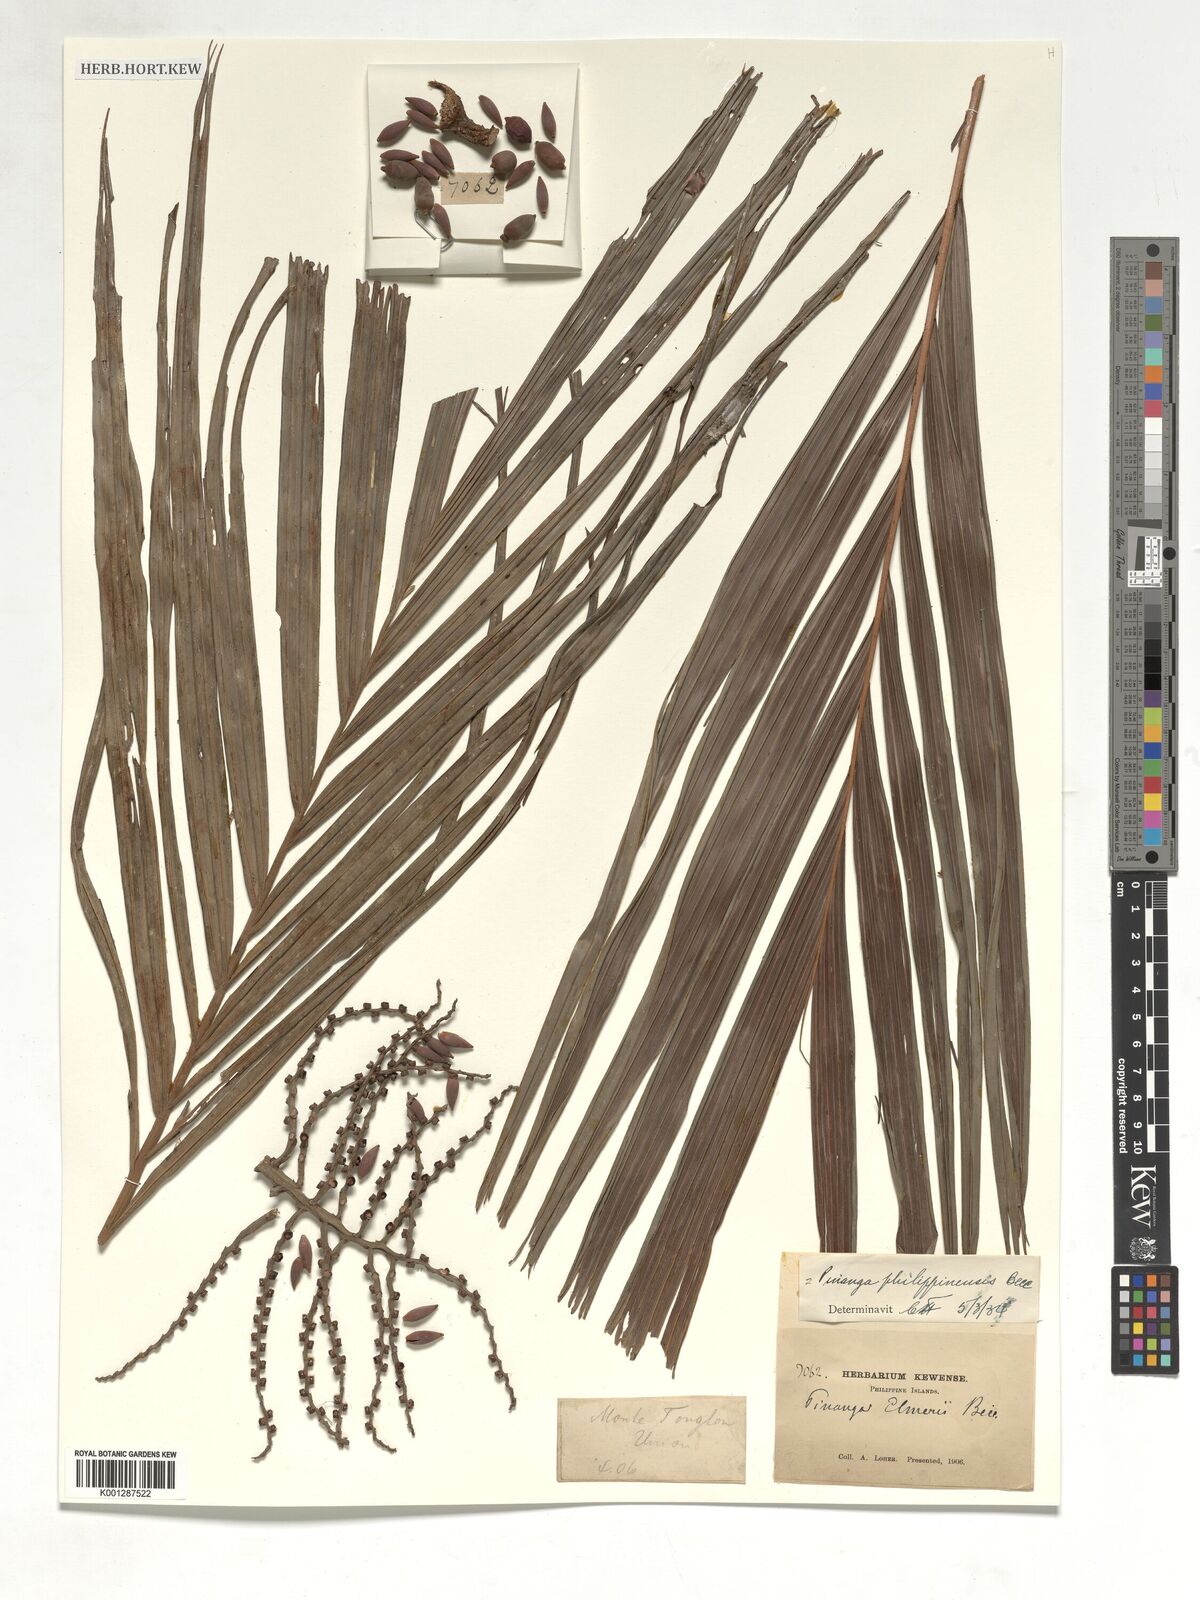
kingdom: Plantae
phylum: Tracheophyta
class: Liliopsida
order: Arecales
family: Arecaceae
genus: Pinanga
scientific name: Pinanga philippinensis
